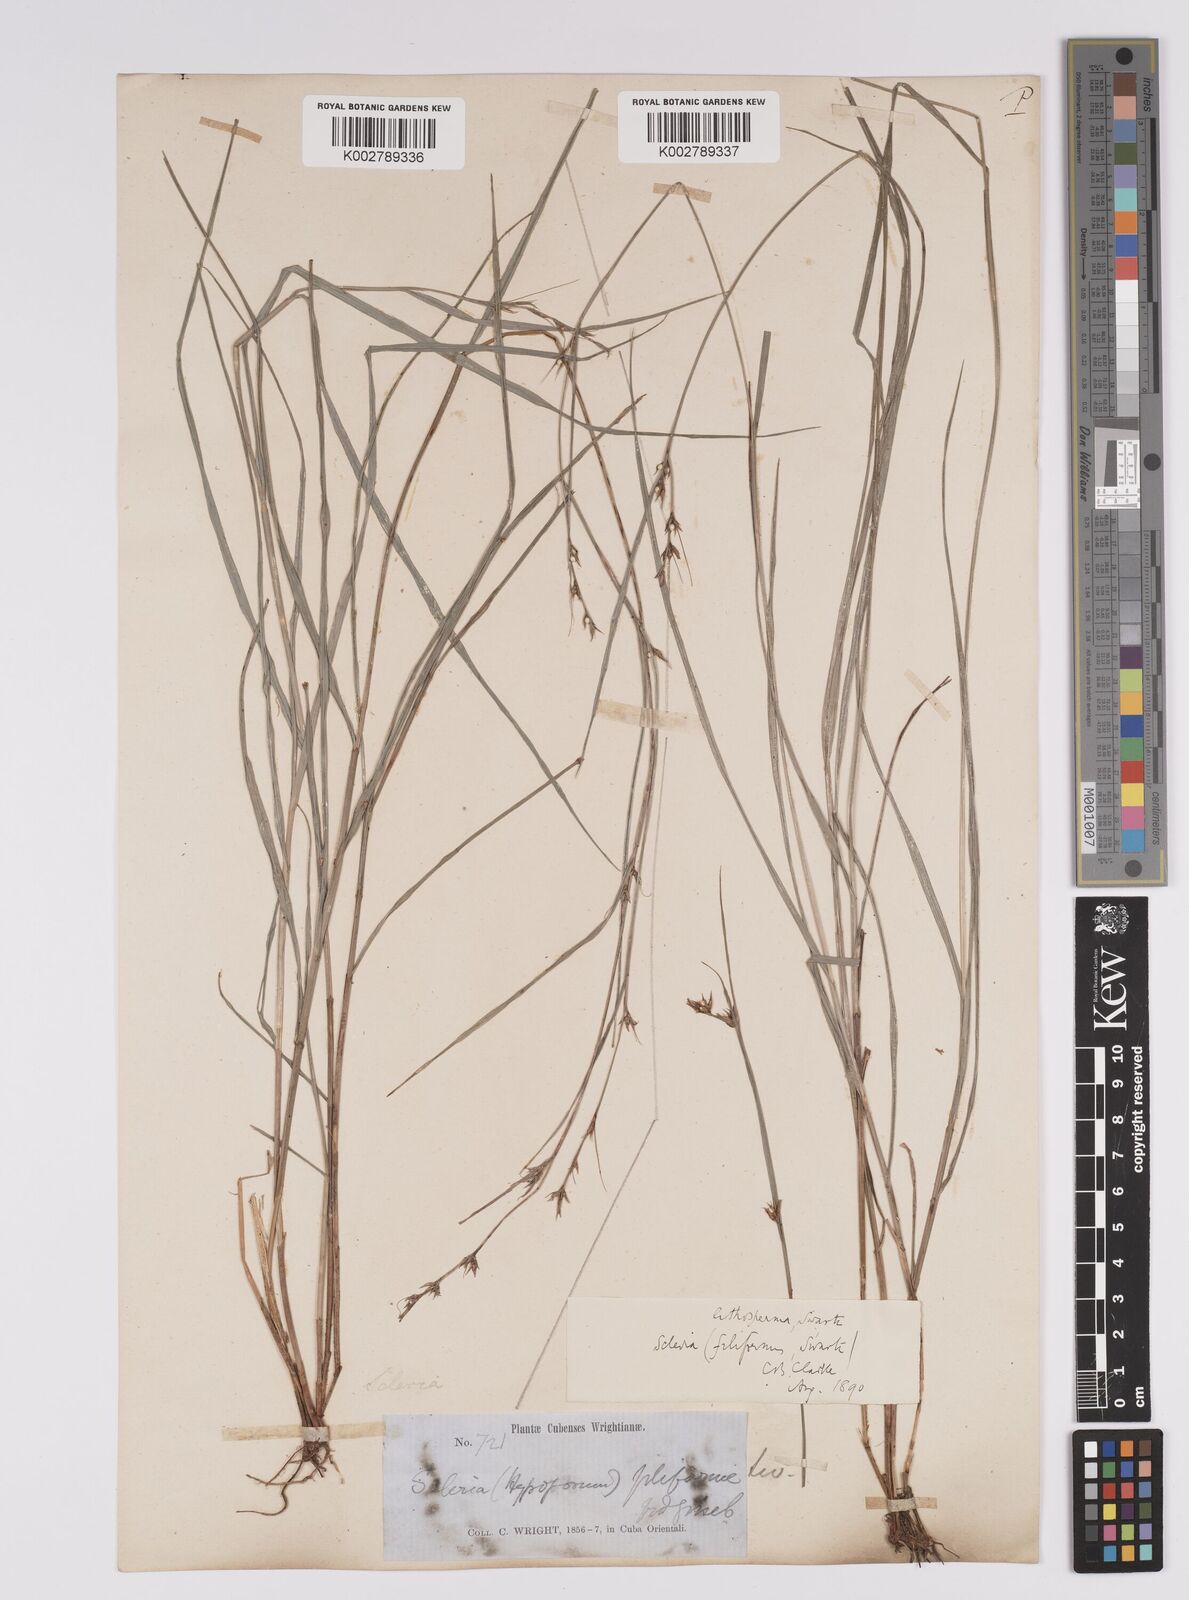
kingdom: Plantae
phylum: Tracheophyta
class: Liliopsida
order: Poales
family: Cyperaceae
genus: Scleria
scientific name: Scleria lithosperma
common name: Florida keys nut-rush
